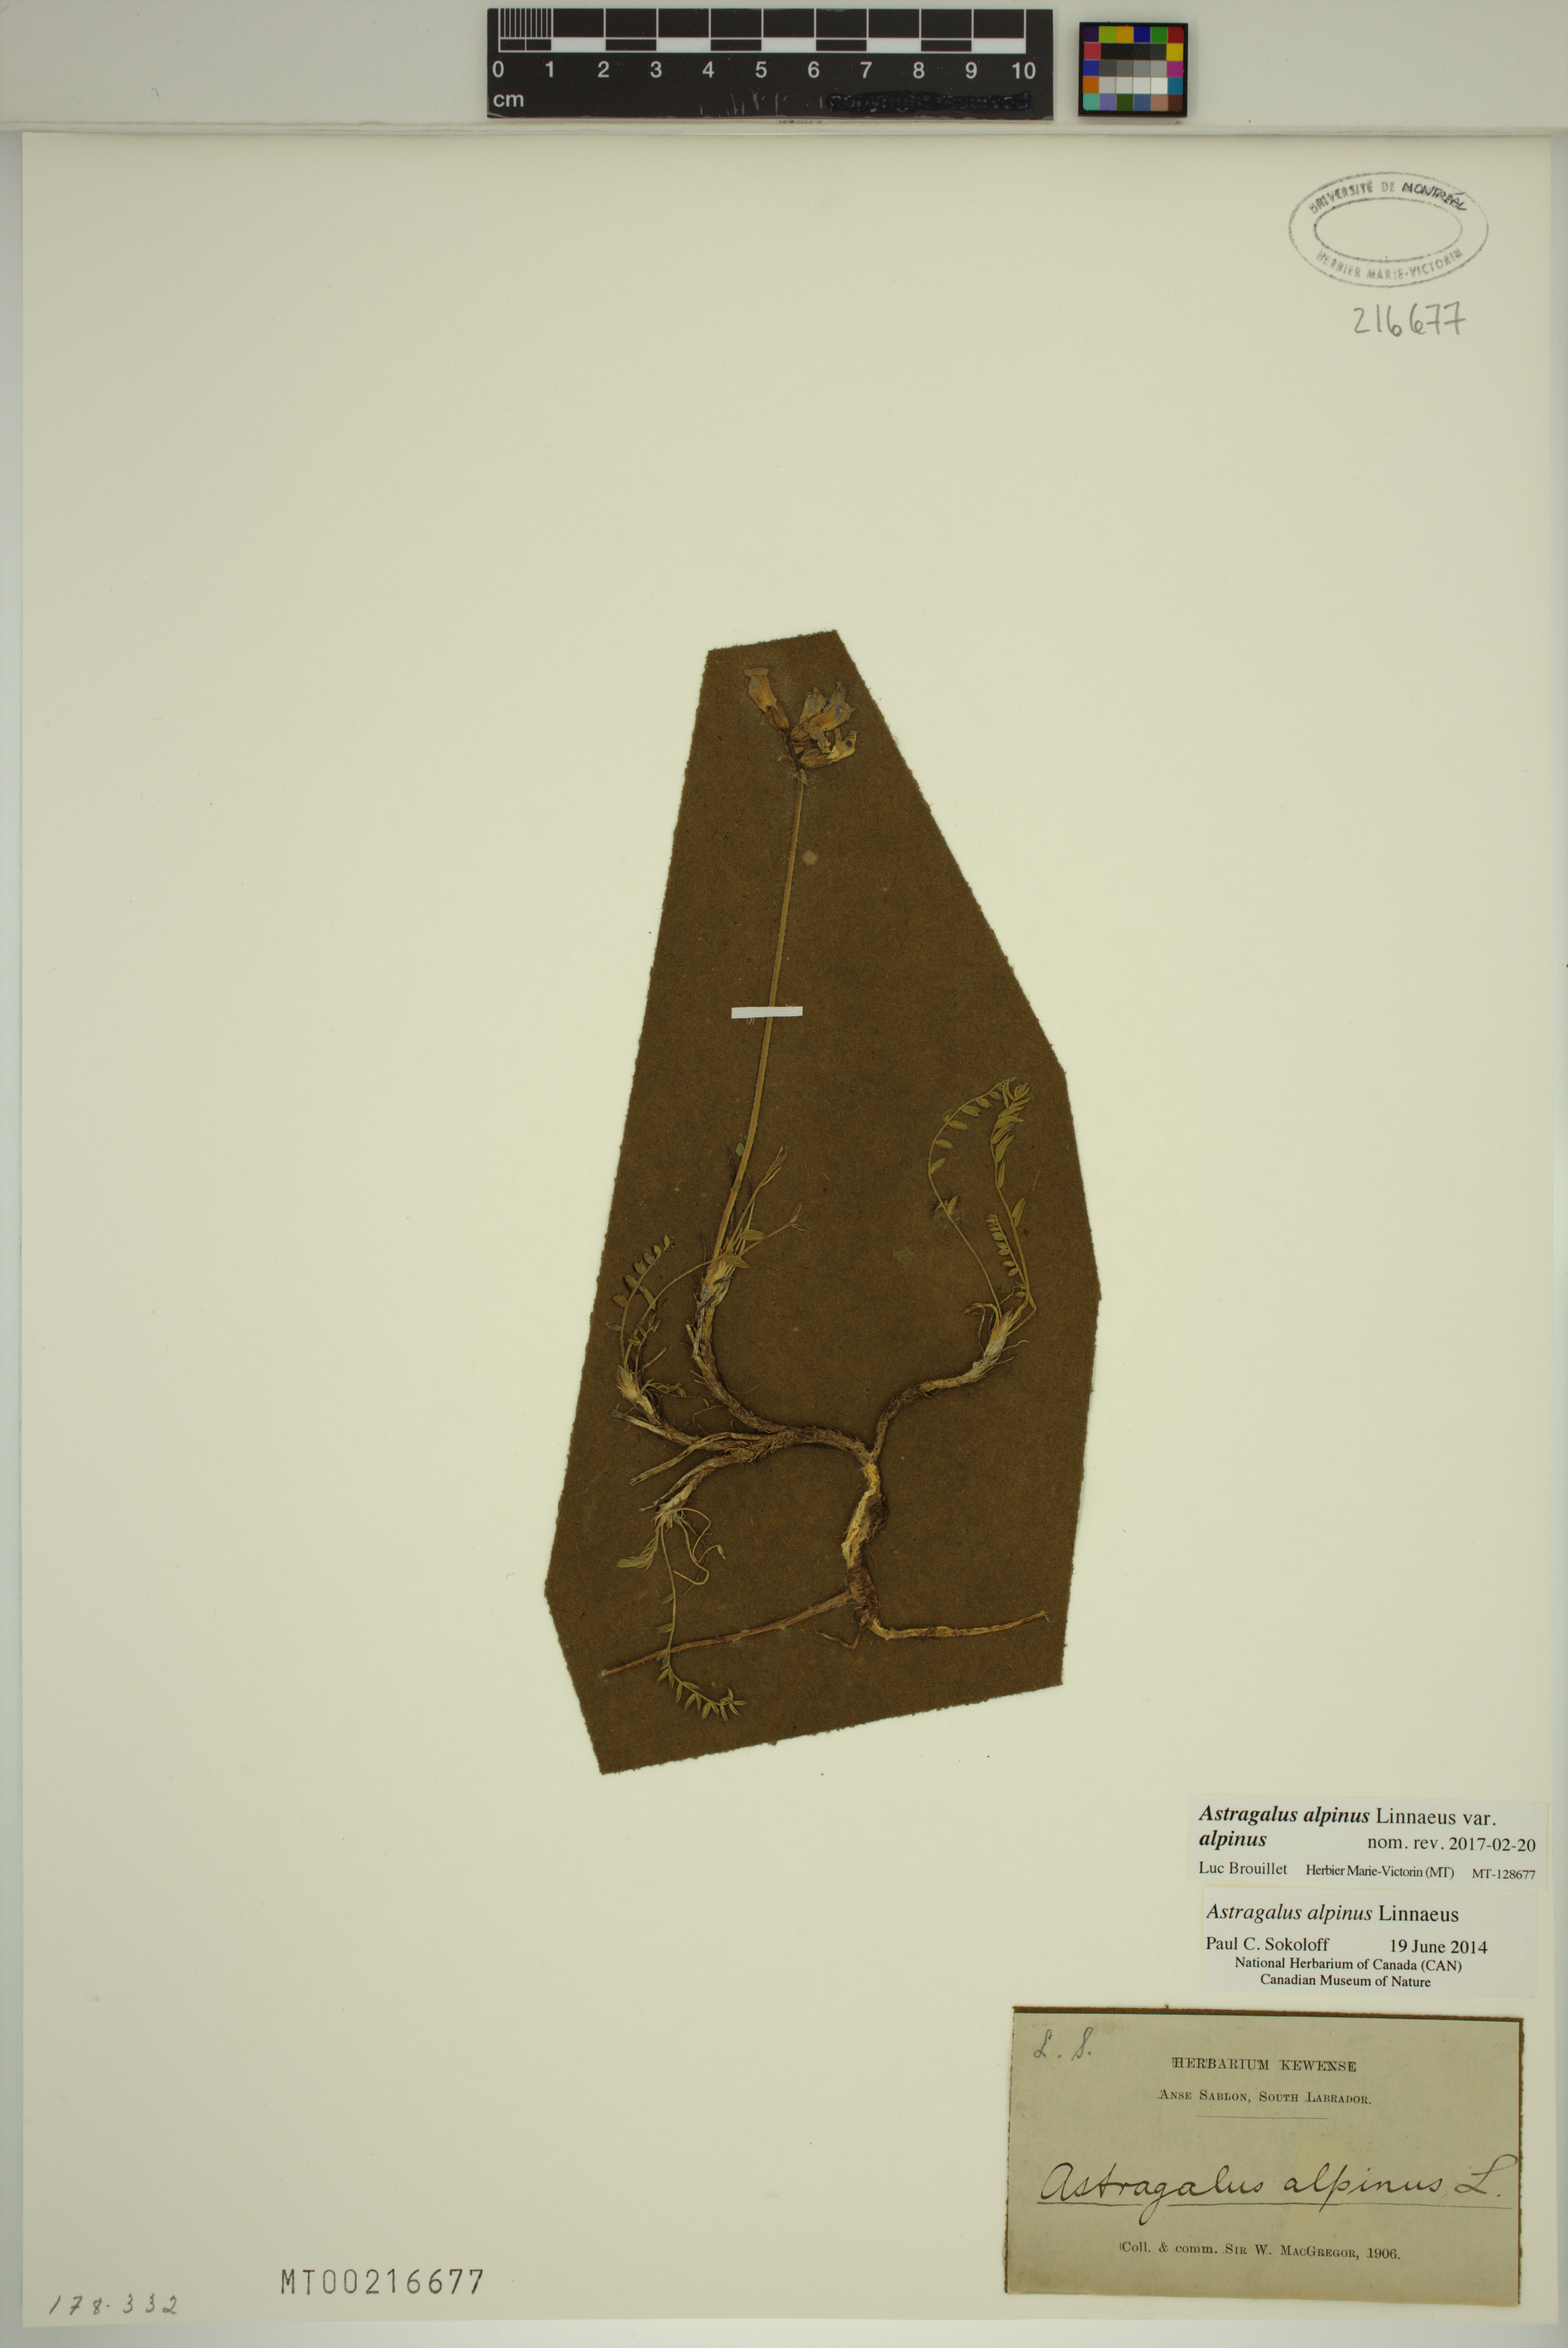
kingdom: Plantae
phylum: Tracheophyta
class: Magnoliopsida
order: Fabales
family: Fabaceae
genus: Astragalus
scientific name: Astragalus alpinus
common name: Alpine milk-vetch
